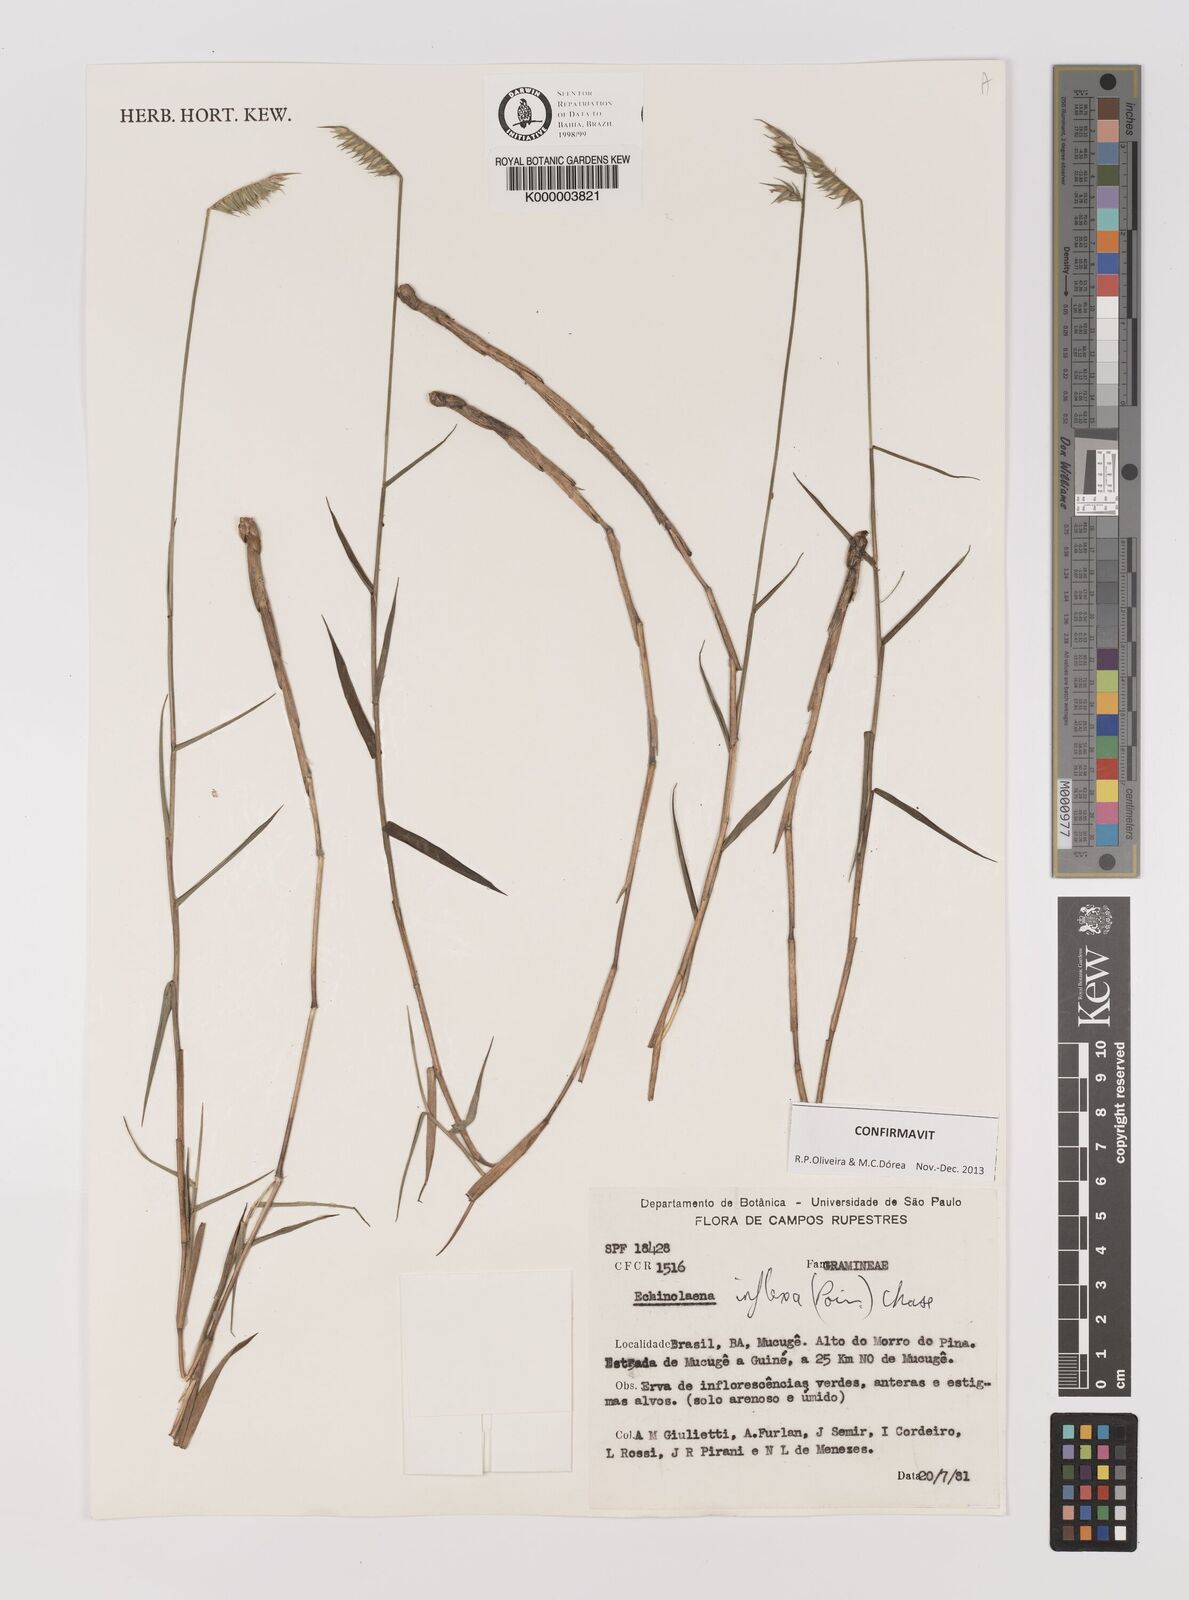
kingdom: Plantae
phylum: Tracheophyta
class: Liliopsida
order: Poales
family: Poaceae
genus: Echinolaena
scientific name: Echinolaena inflexa
